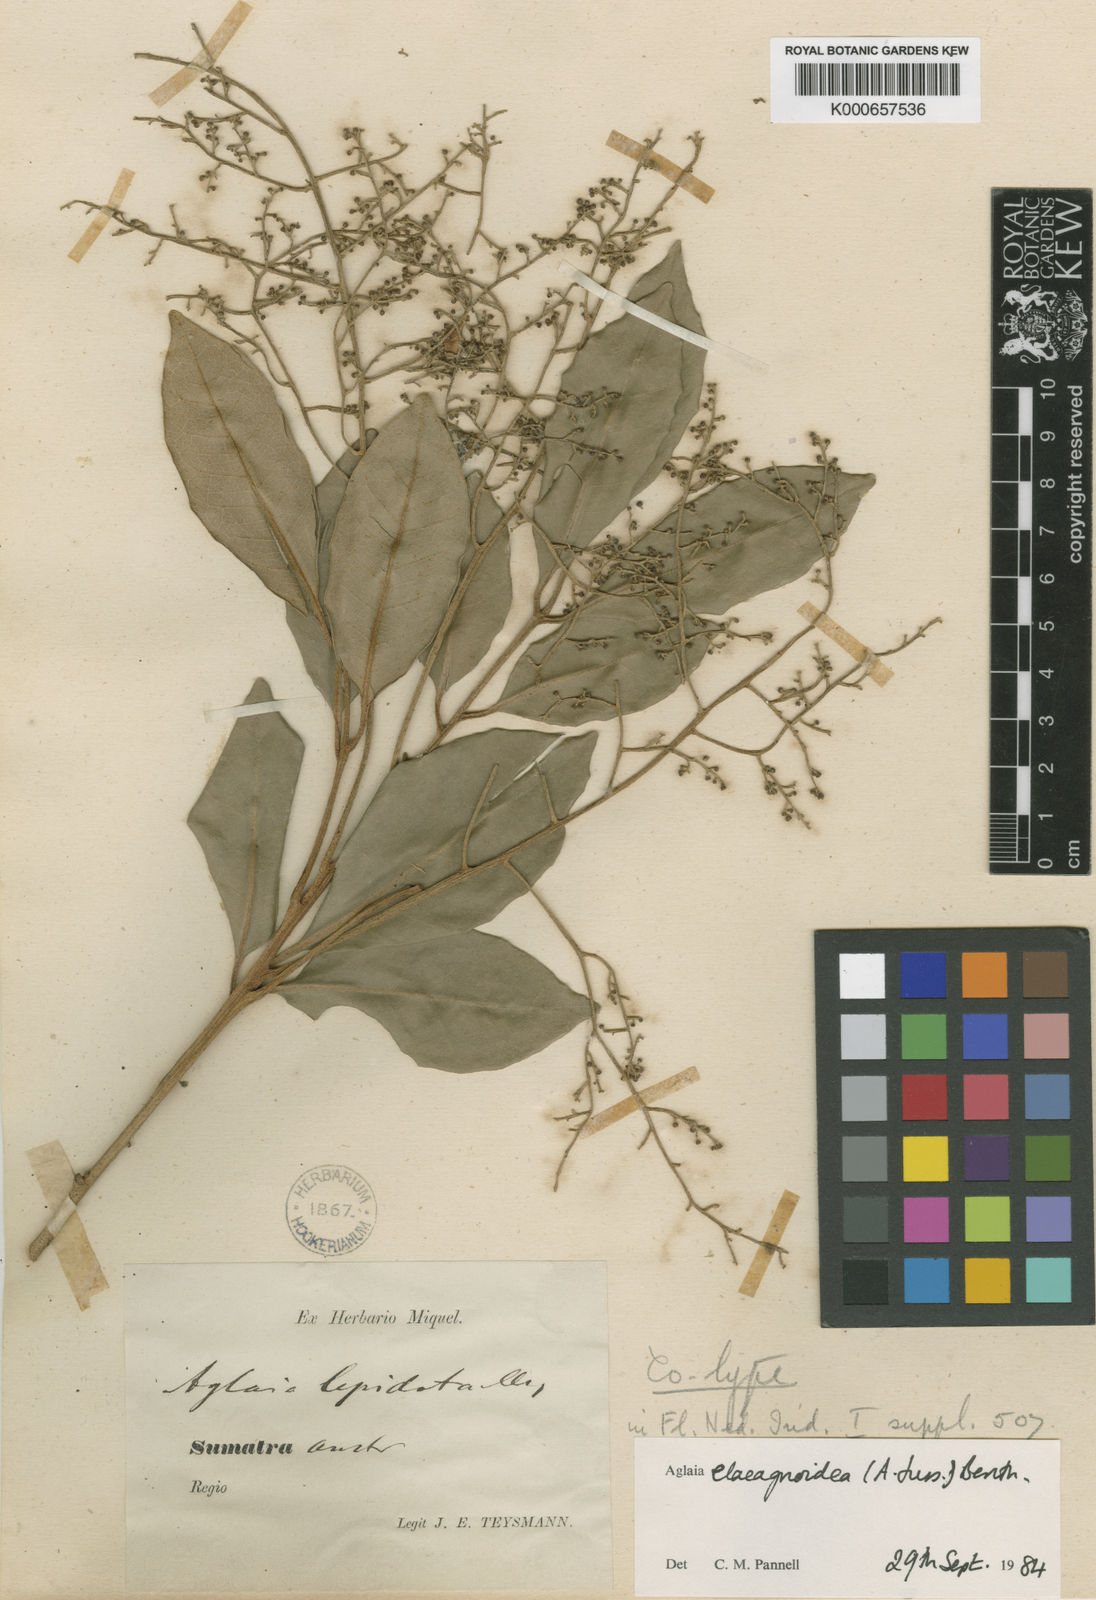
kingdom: Plantae
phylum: Tracheophyta
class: Magnoliopsida
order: Sapindales
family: Meliaceae
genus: Aglaia
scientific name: Aglaia elaeagnoidea
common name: Droopyleaf
